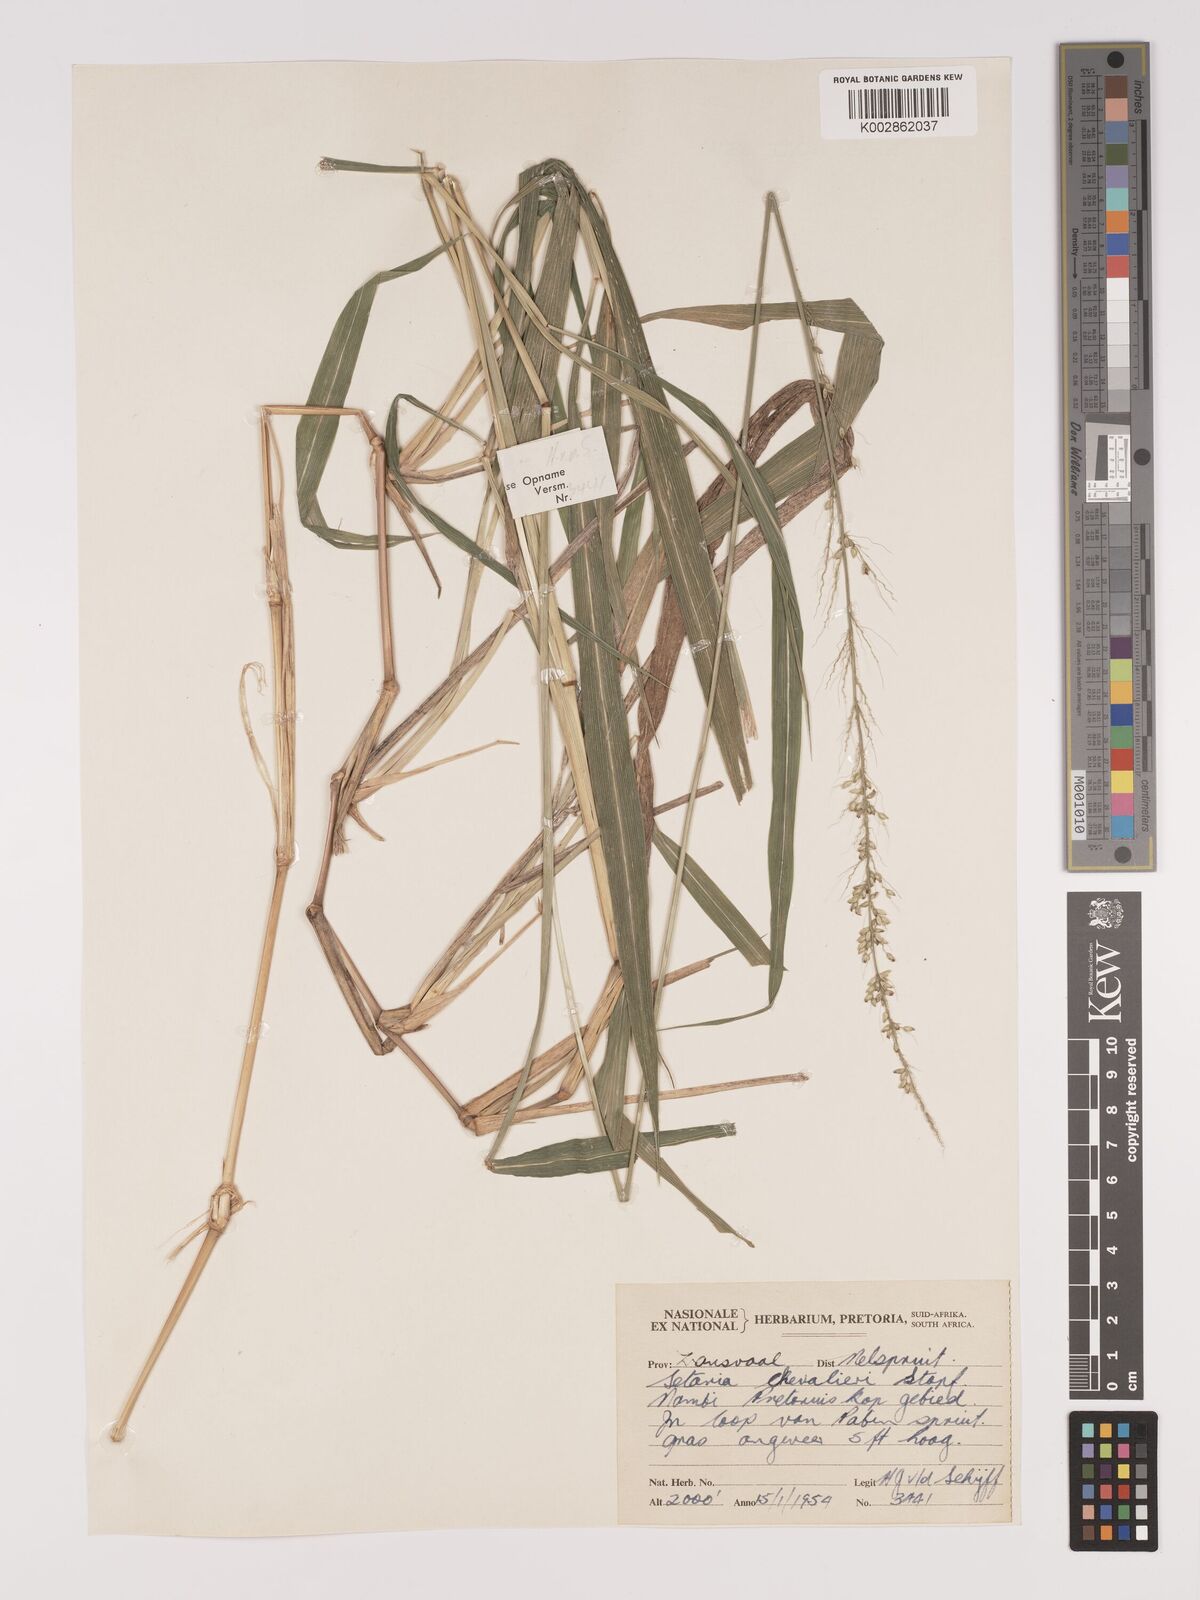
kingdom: Plantae
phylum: Tracheophyta
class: Liliopsida
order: Poales
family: Poaceae
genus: Setaria
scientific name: Setaria megaphylla
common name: Bigleaf bristlegrass
